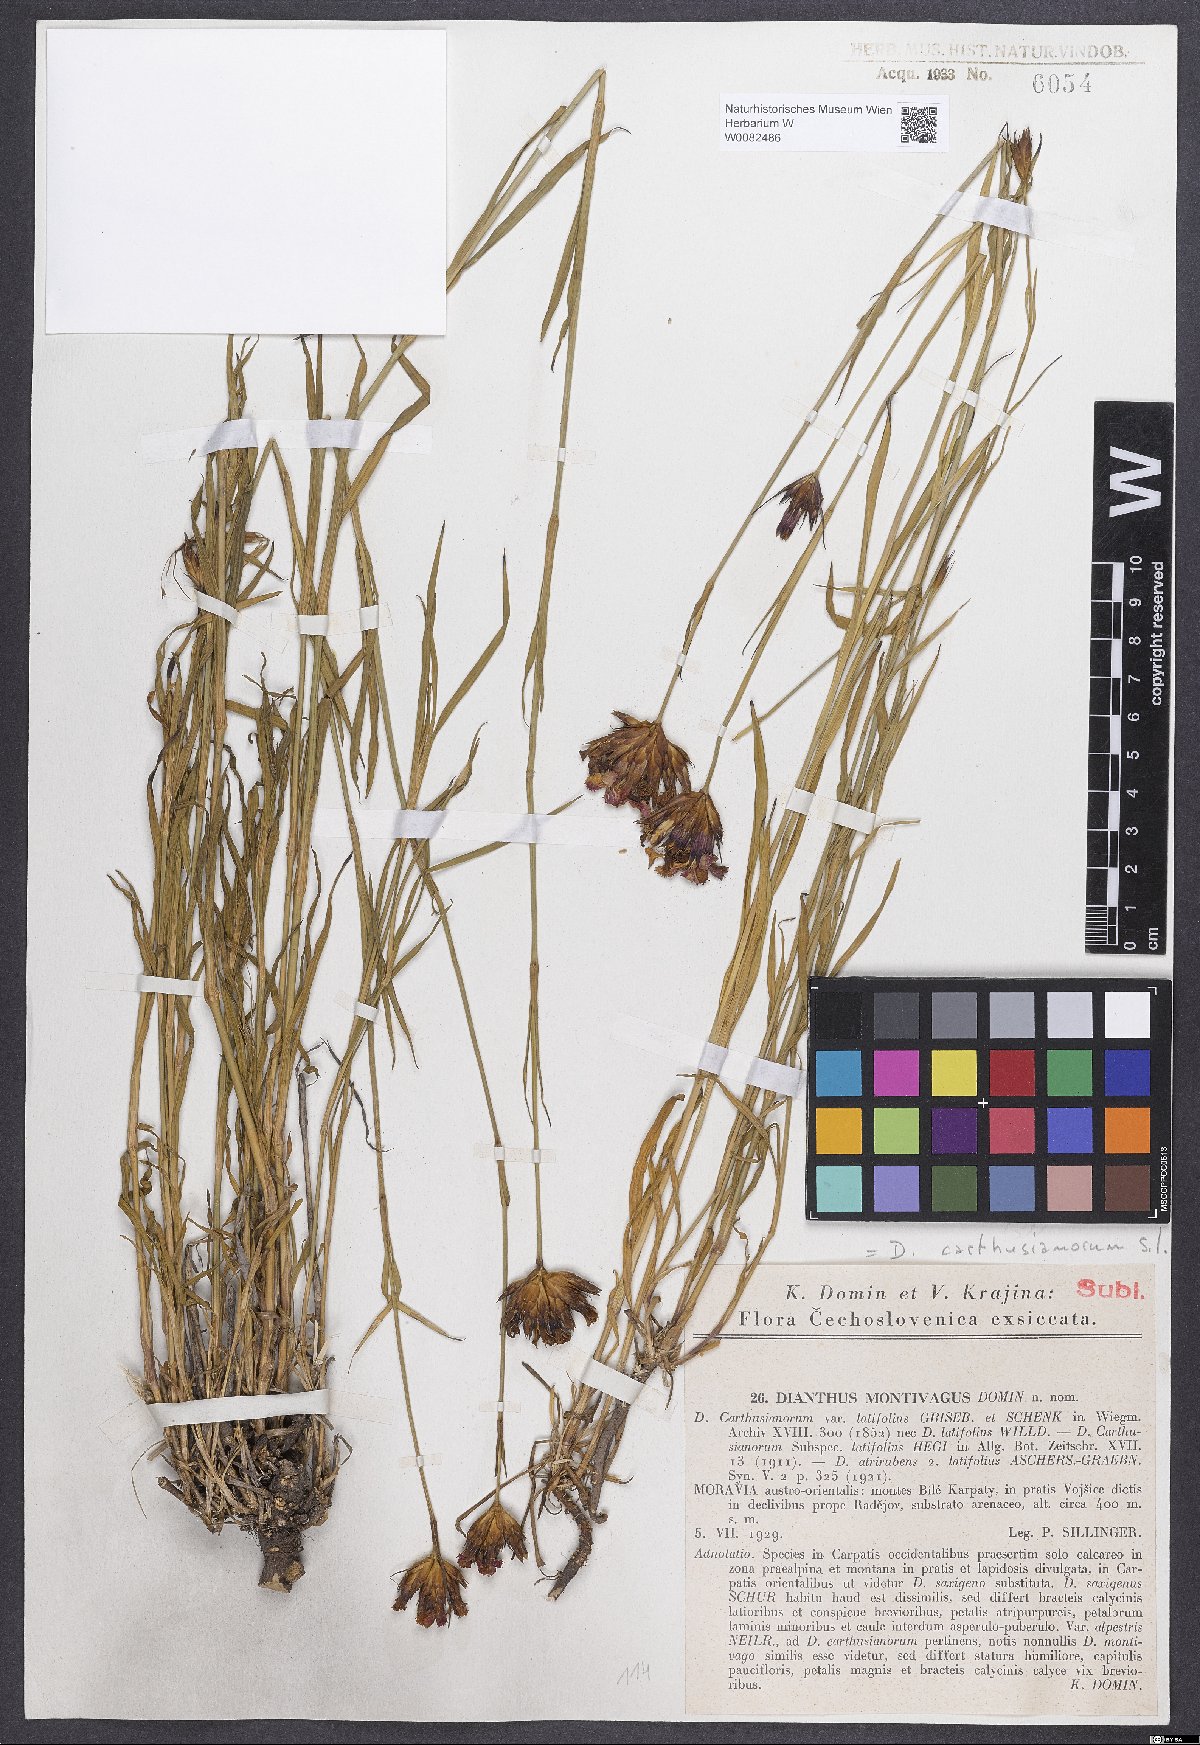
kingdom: Plantae
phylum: Tracheophyta
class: Magnoliopsida
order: Caryophyllales
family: Caryophyllaceae
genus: Dianthus
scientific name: Dianthus carthusianorum
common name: Carthusian pink
